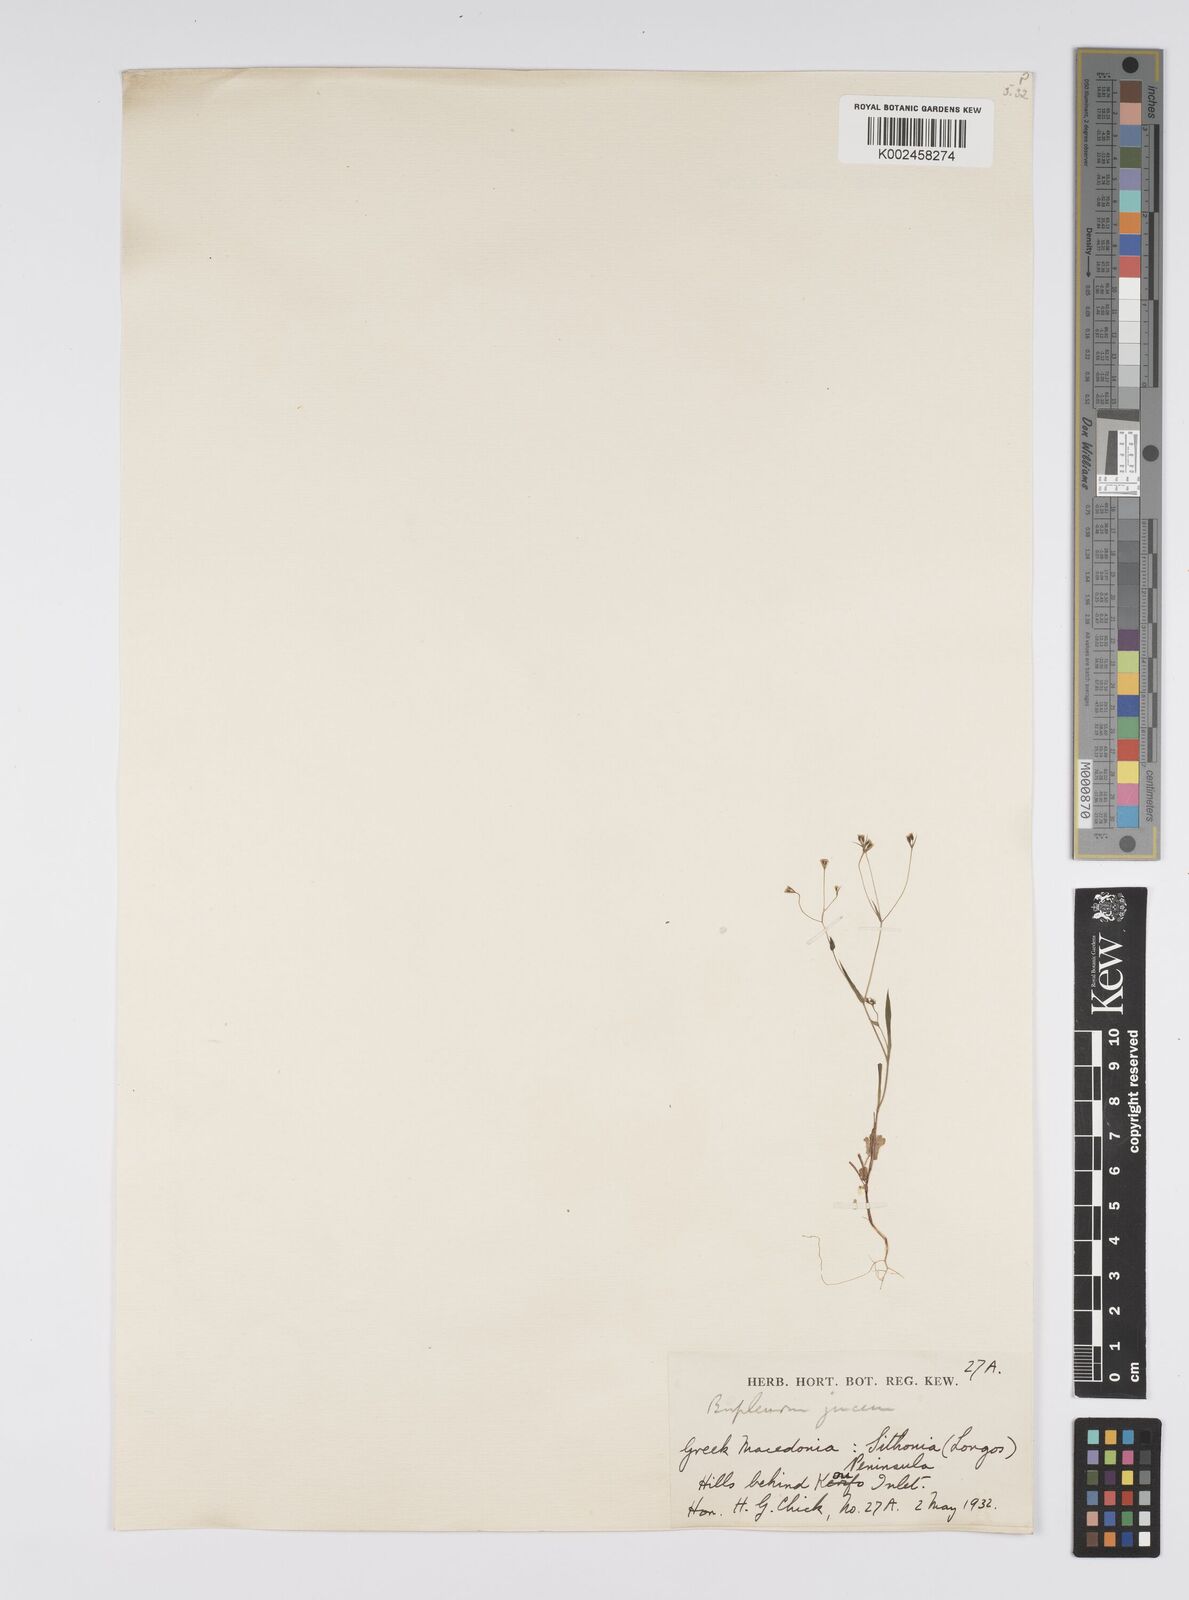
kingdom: Plantae
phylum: Tracheophyta
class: Magnoliopsida
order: Apiales
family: Apiaceae
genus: Bupleurum
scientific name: Bupleurum praealtum
